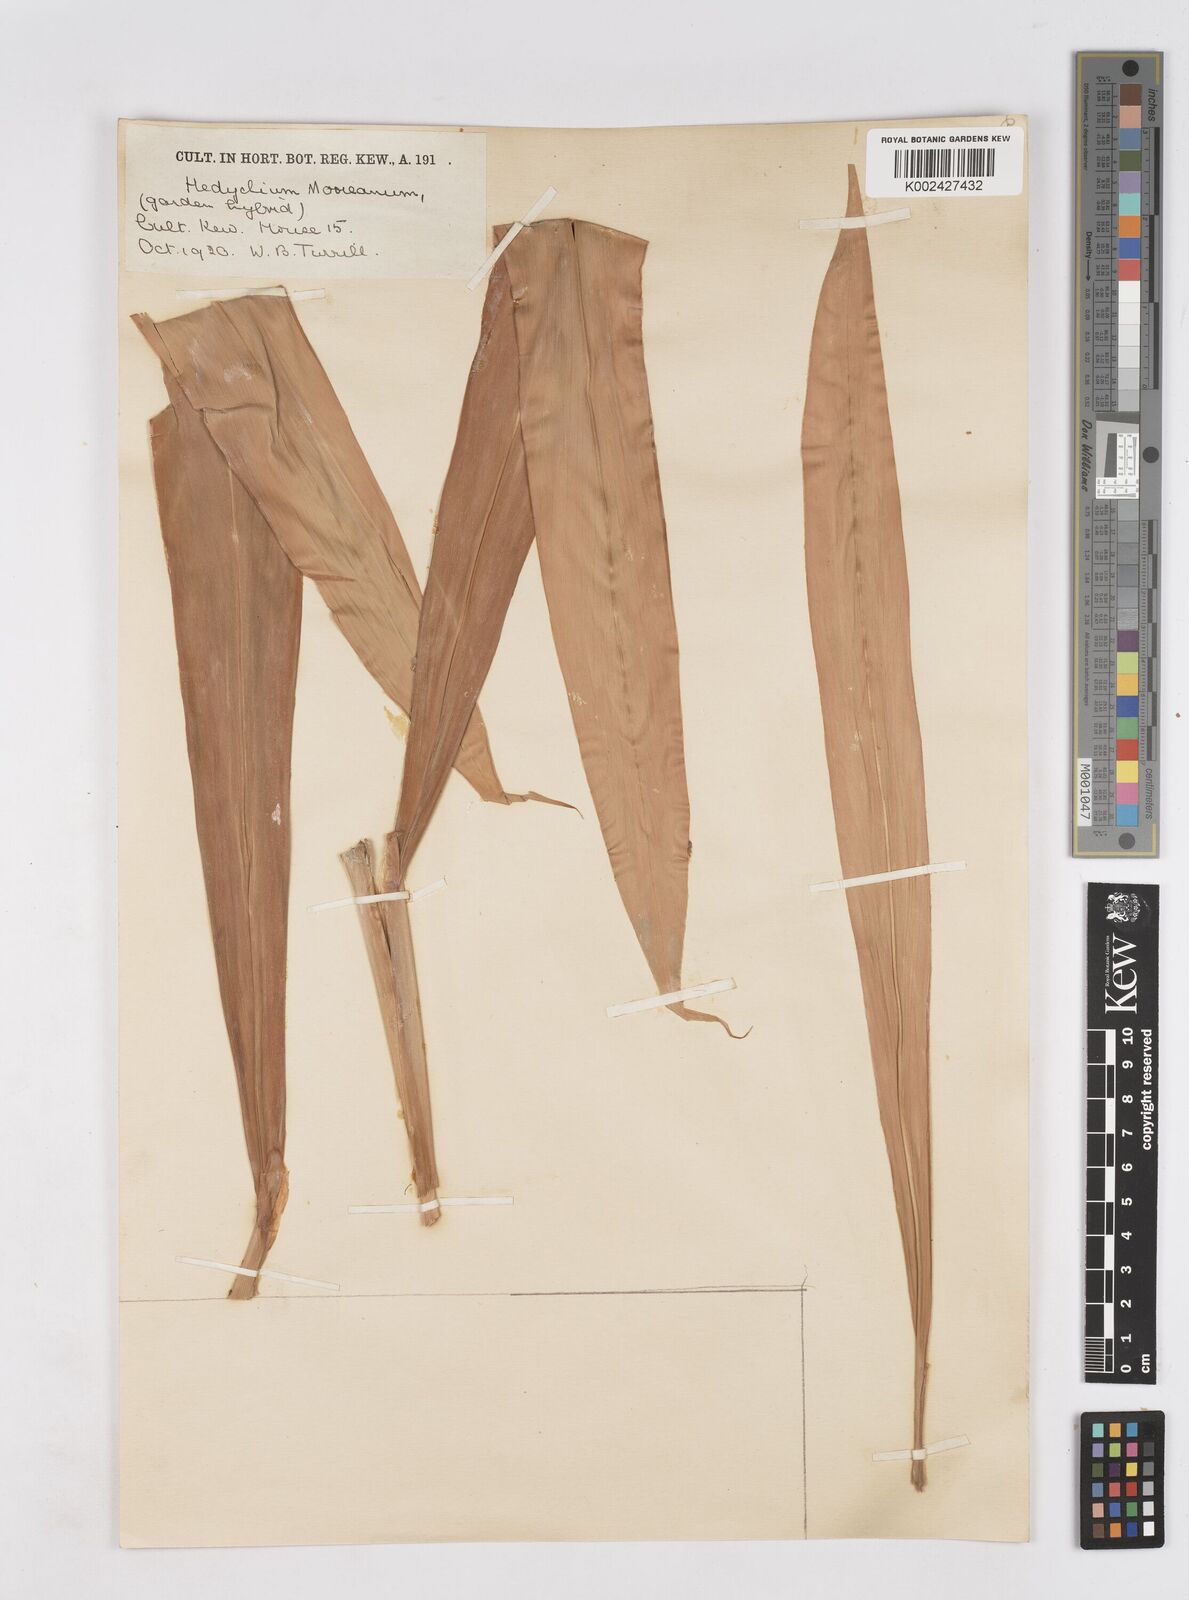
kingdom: Plantae
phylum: Tracheophyta
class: Liliopsida
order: Zingiberales
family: Zingiberaceae
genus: Hedychium
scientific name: Hedychium
